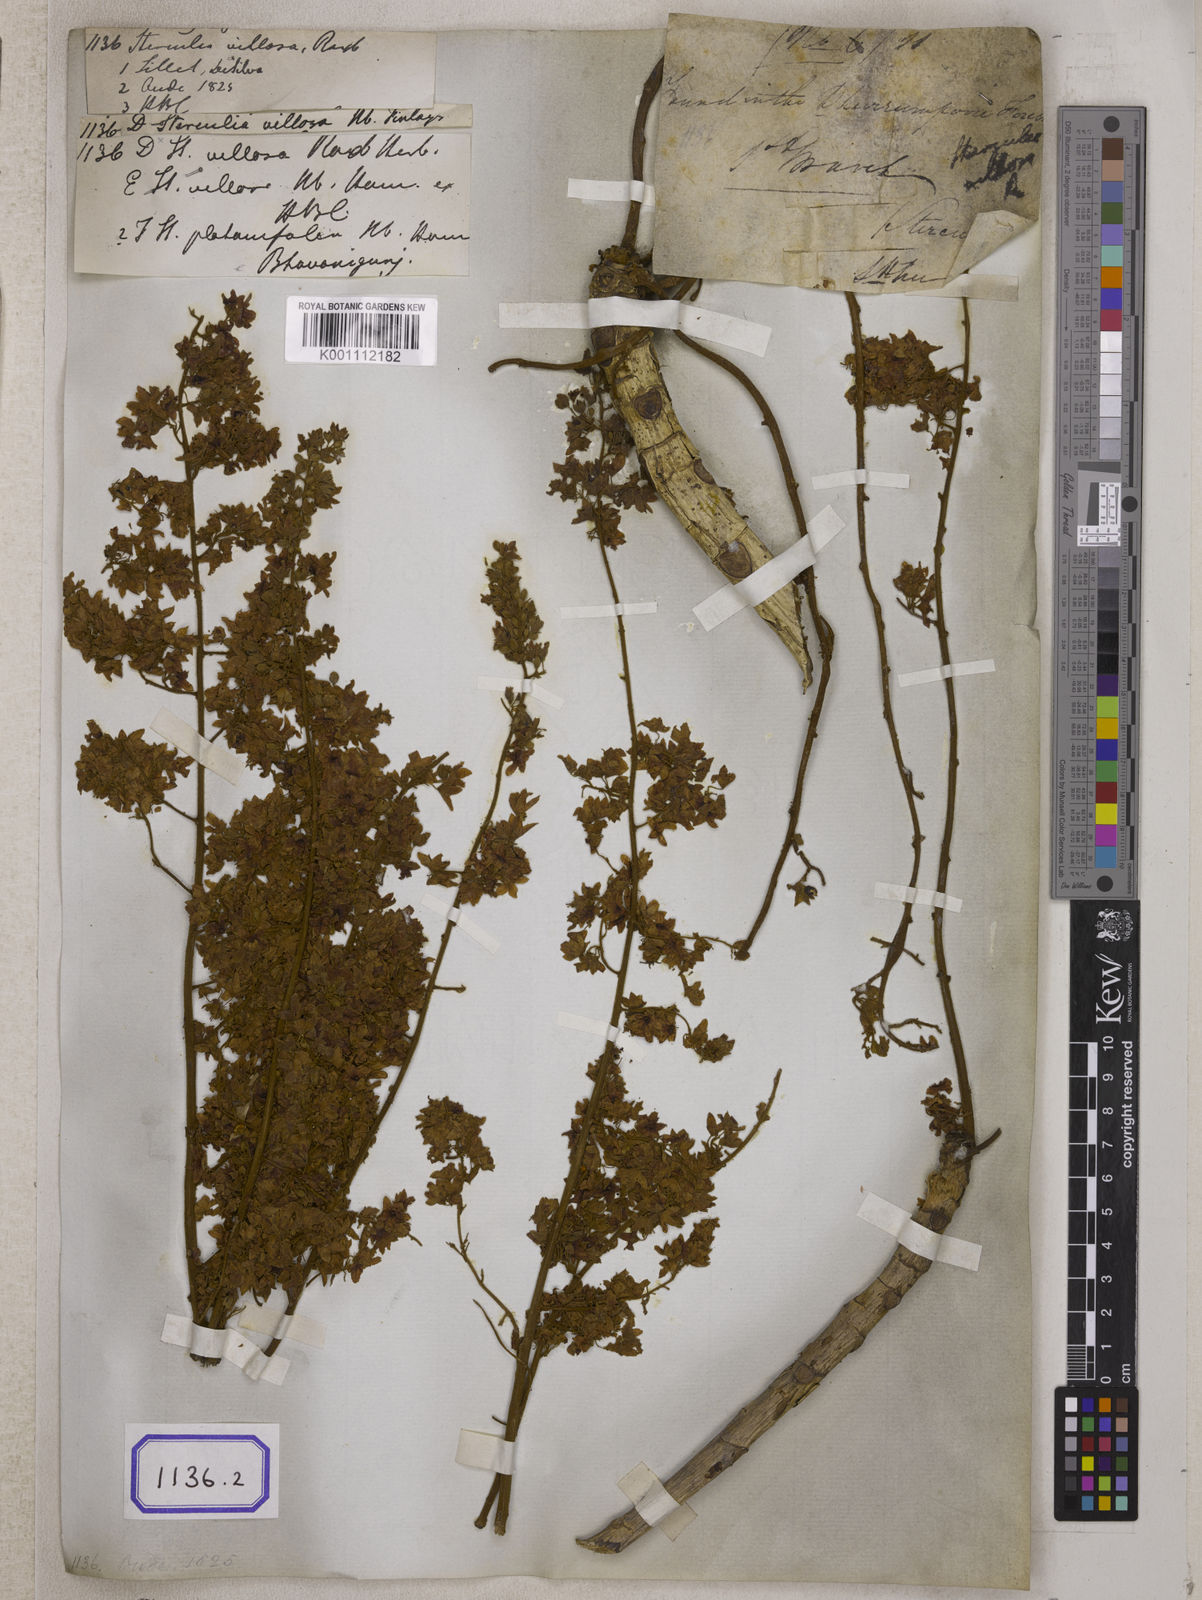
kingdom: Plantae
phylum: Tracheophyta
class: Magnoliopsida
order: Malvales
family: Malvaceae
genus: Sterculia
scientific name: Sterculia
